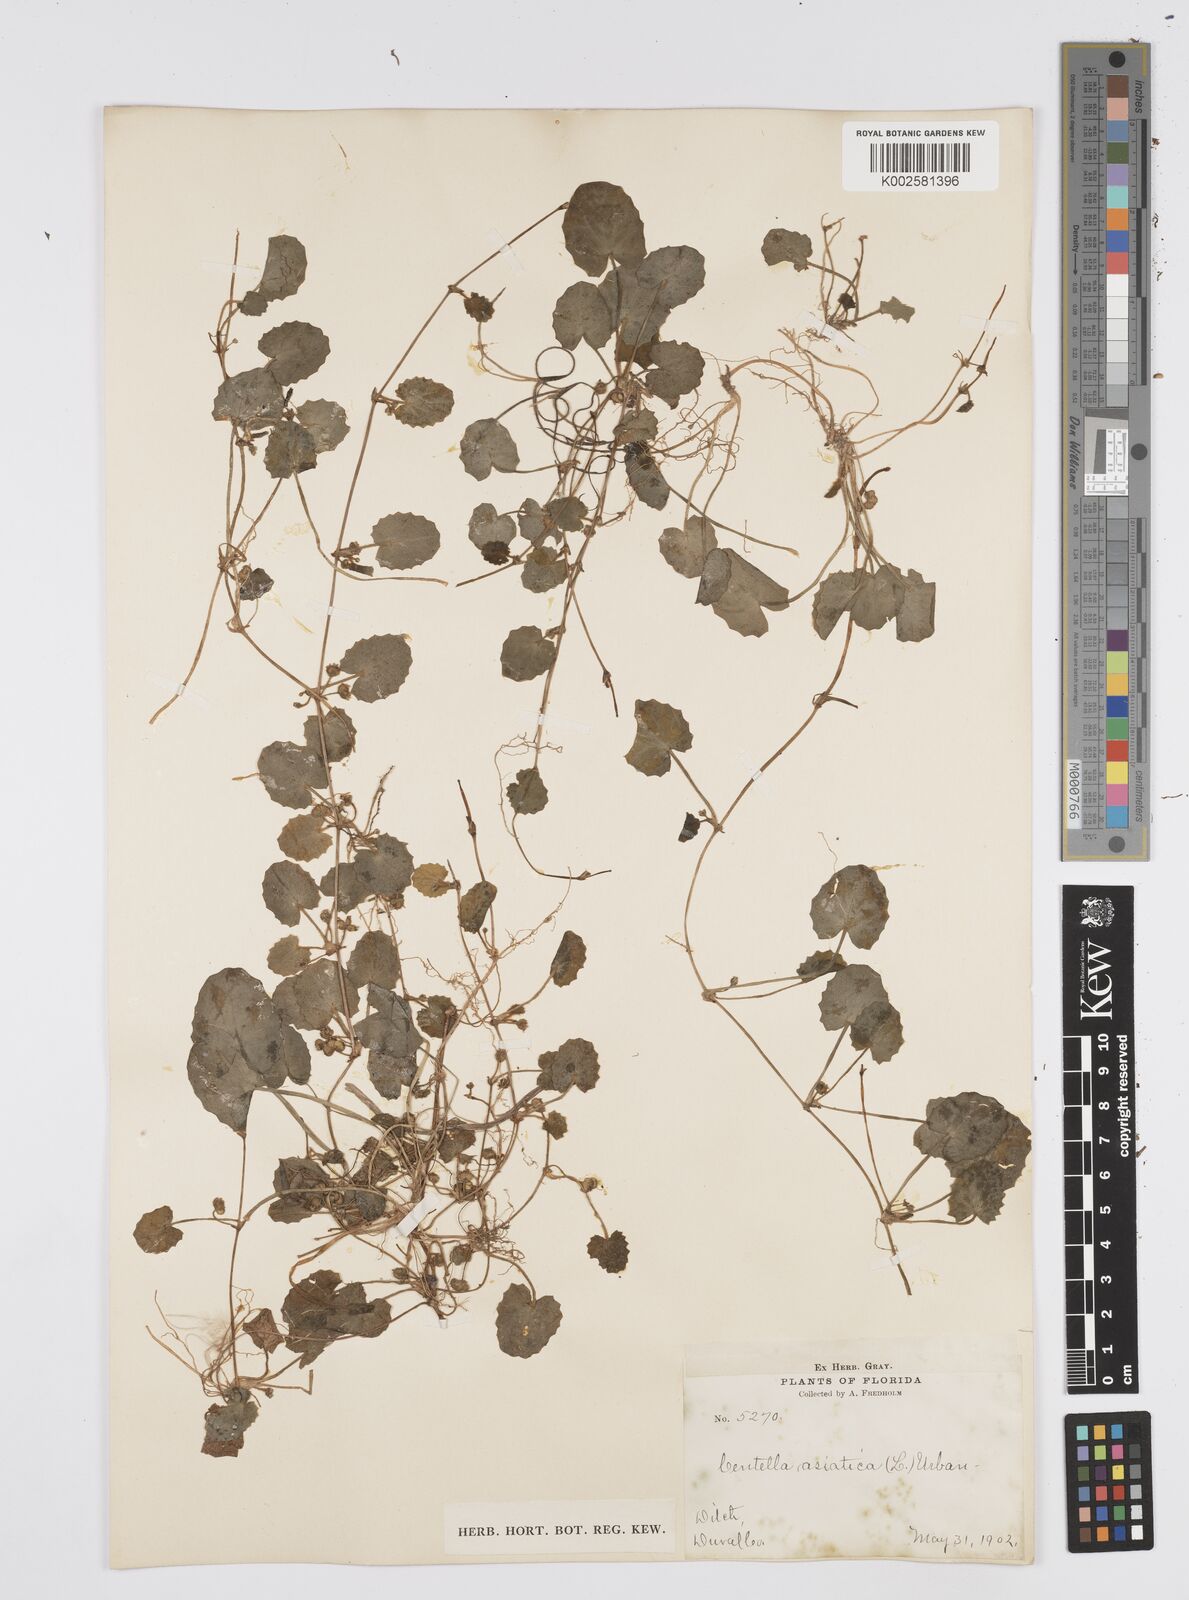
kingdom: Plantae
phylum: Tracheophyta
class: Magnoliopsida
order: Apiales
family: Apiaceae
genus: Centella
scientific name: Centella erecta
